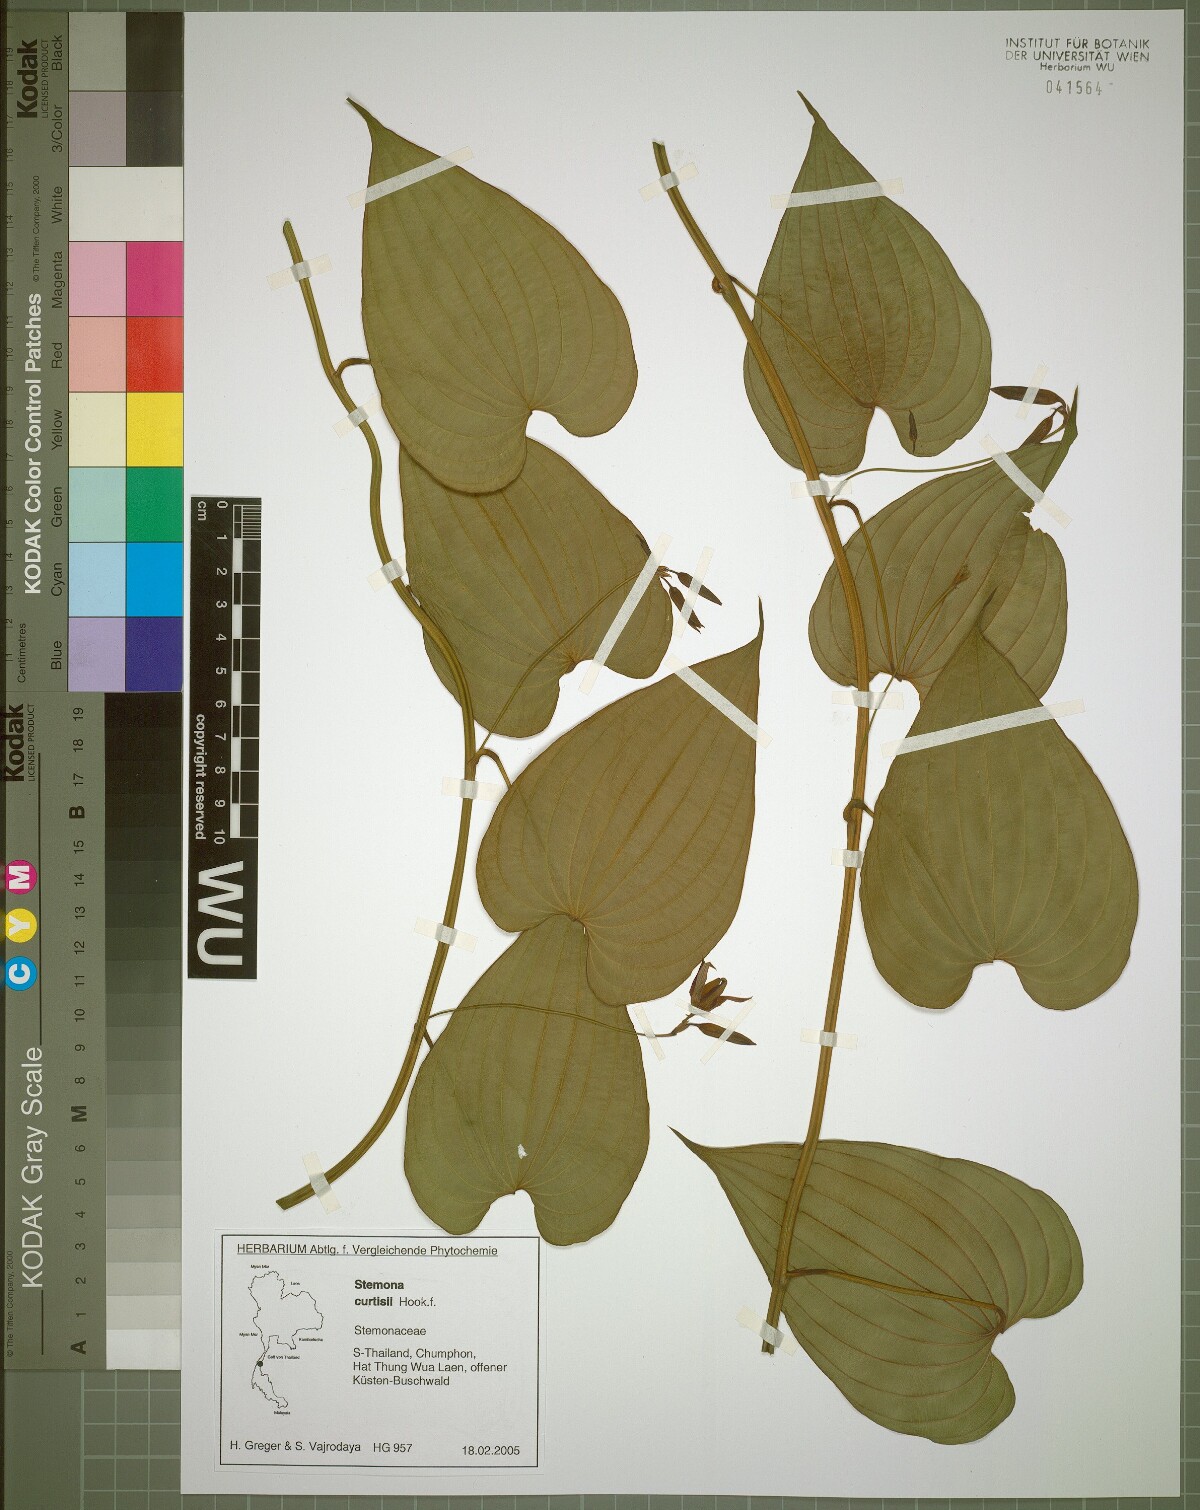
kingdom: Plantae
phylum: Tracheophyta
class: Liliopsida
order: Pandanales
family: Stemonaceae
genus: Stemona
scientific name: Stemona curtisii
